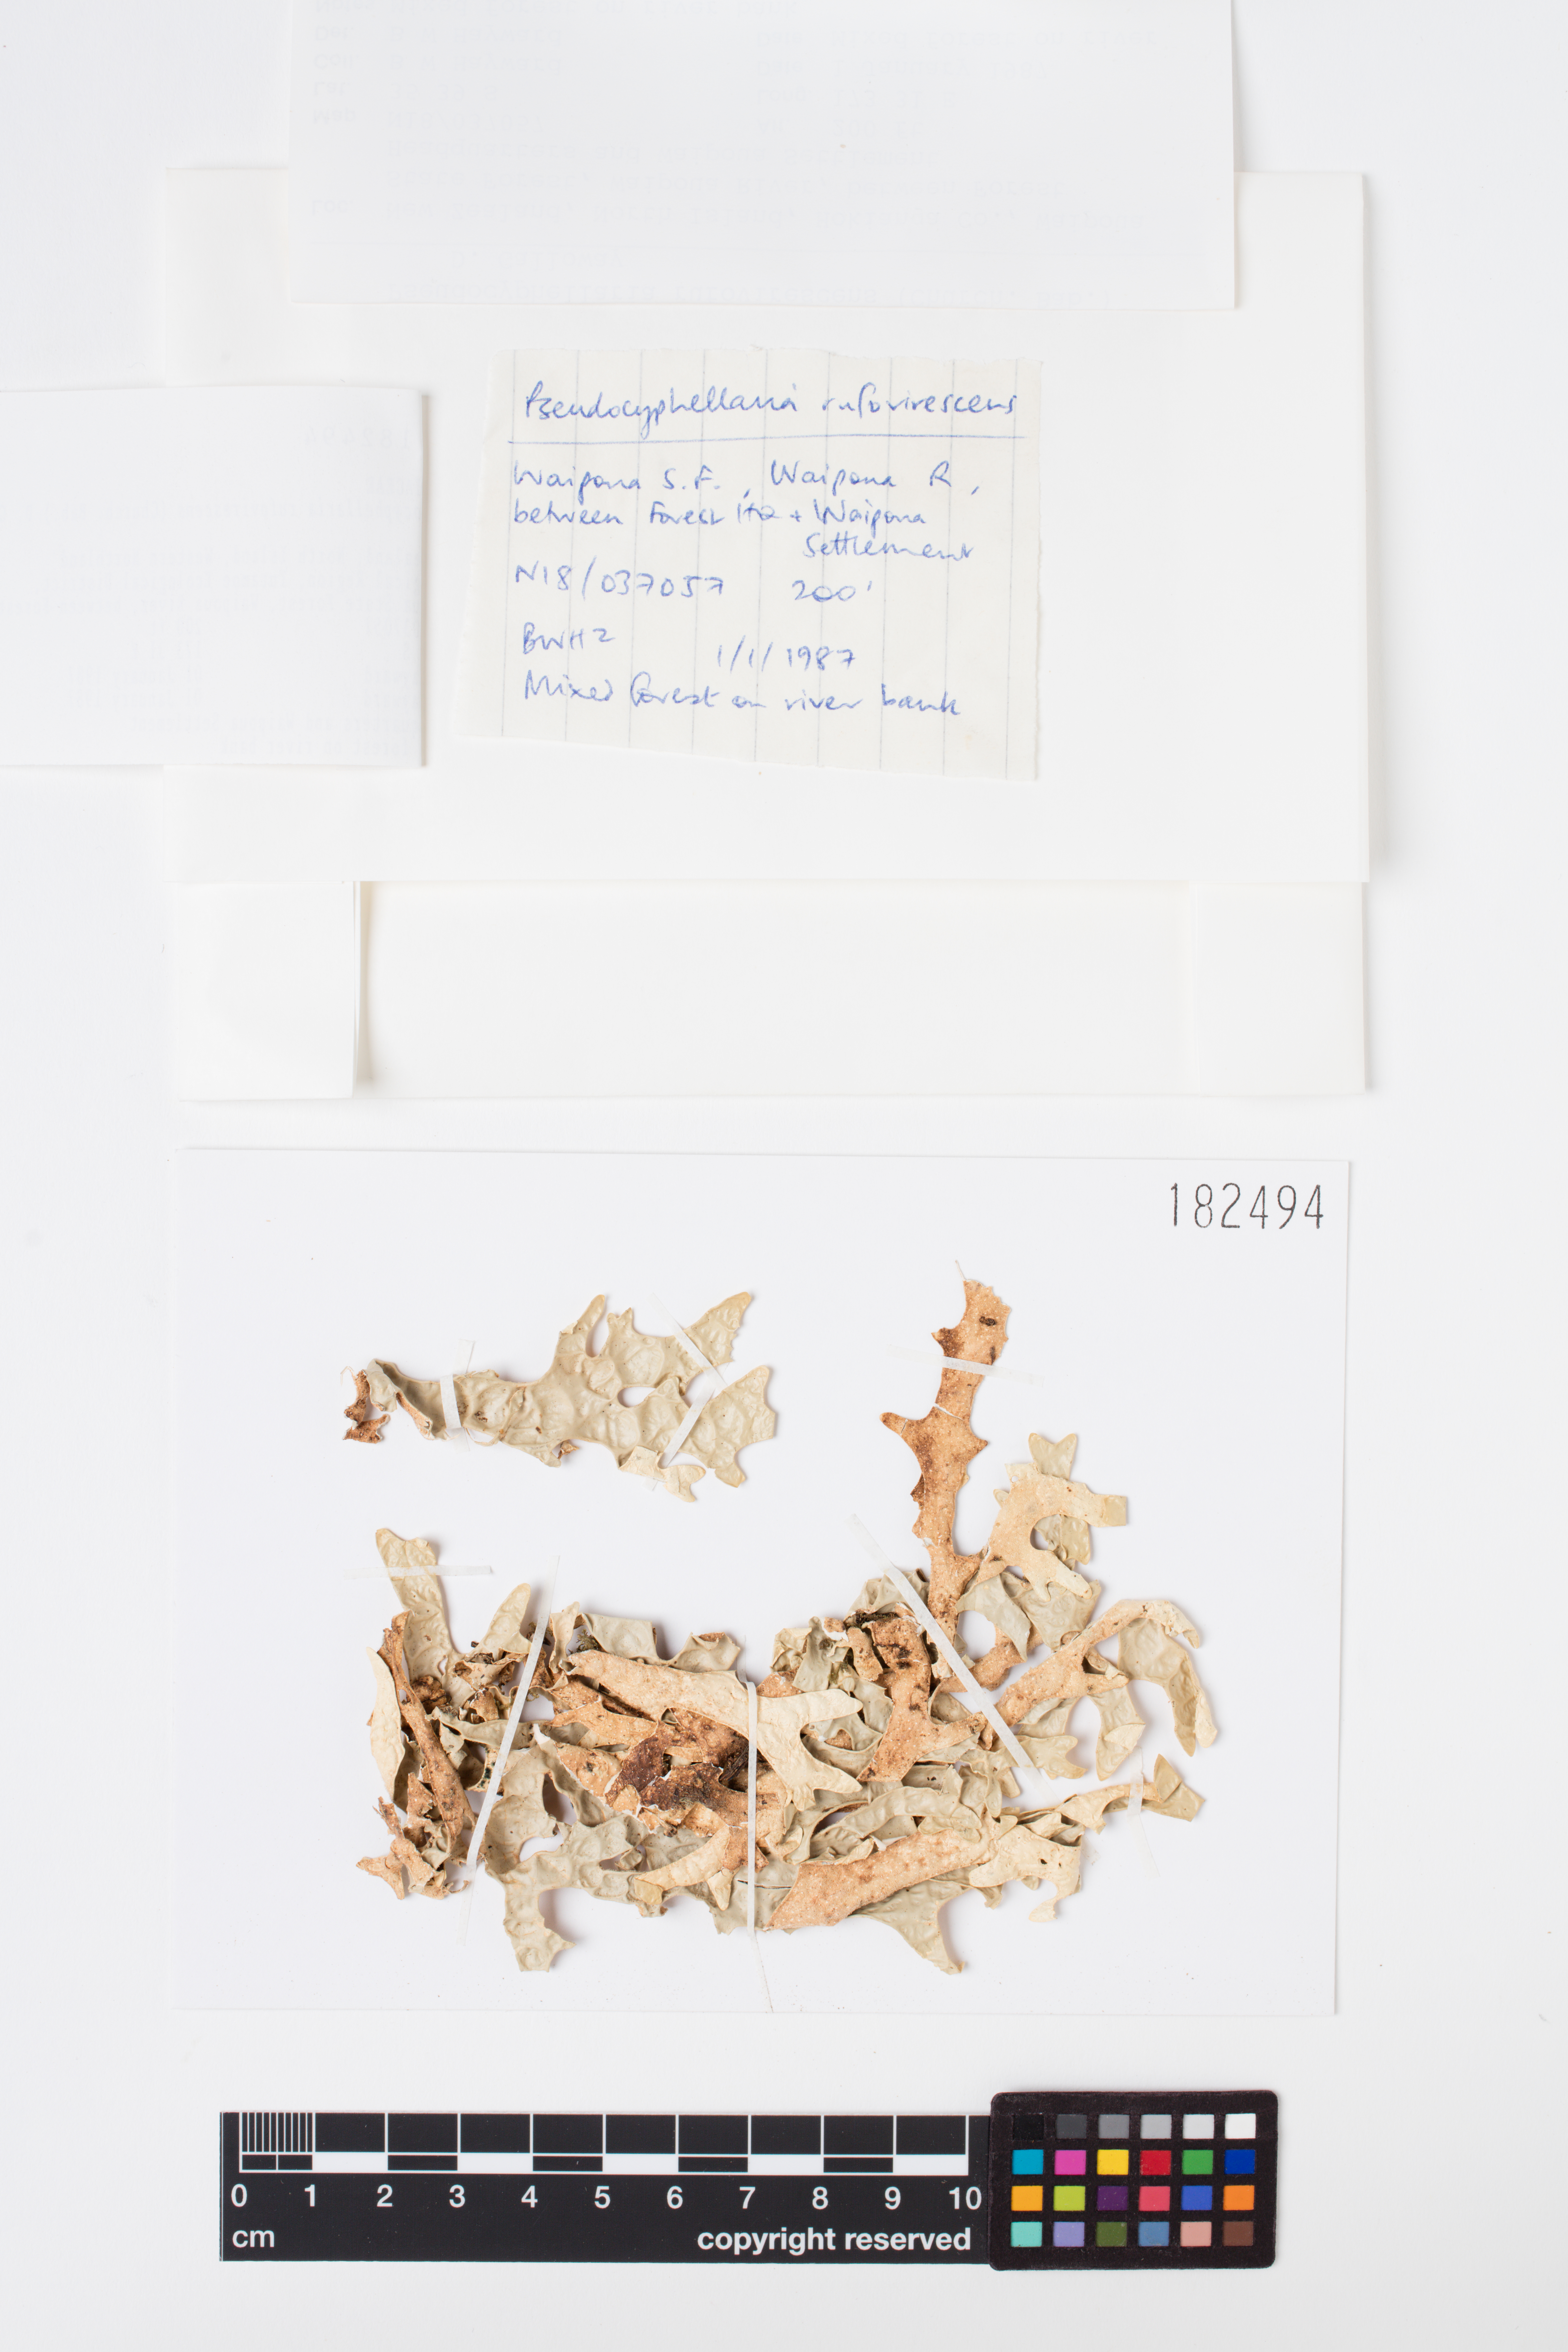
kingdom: Fungi
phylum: Ascomycota
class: Lecanoromycetes
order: Peltigerales
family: Lobariaceae
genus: Pseudocyphellaria
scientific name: Pseudocyphellaria rufovirescens
